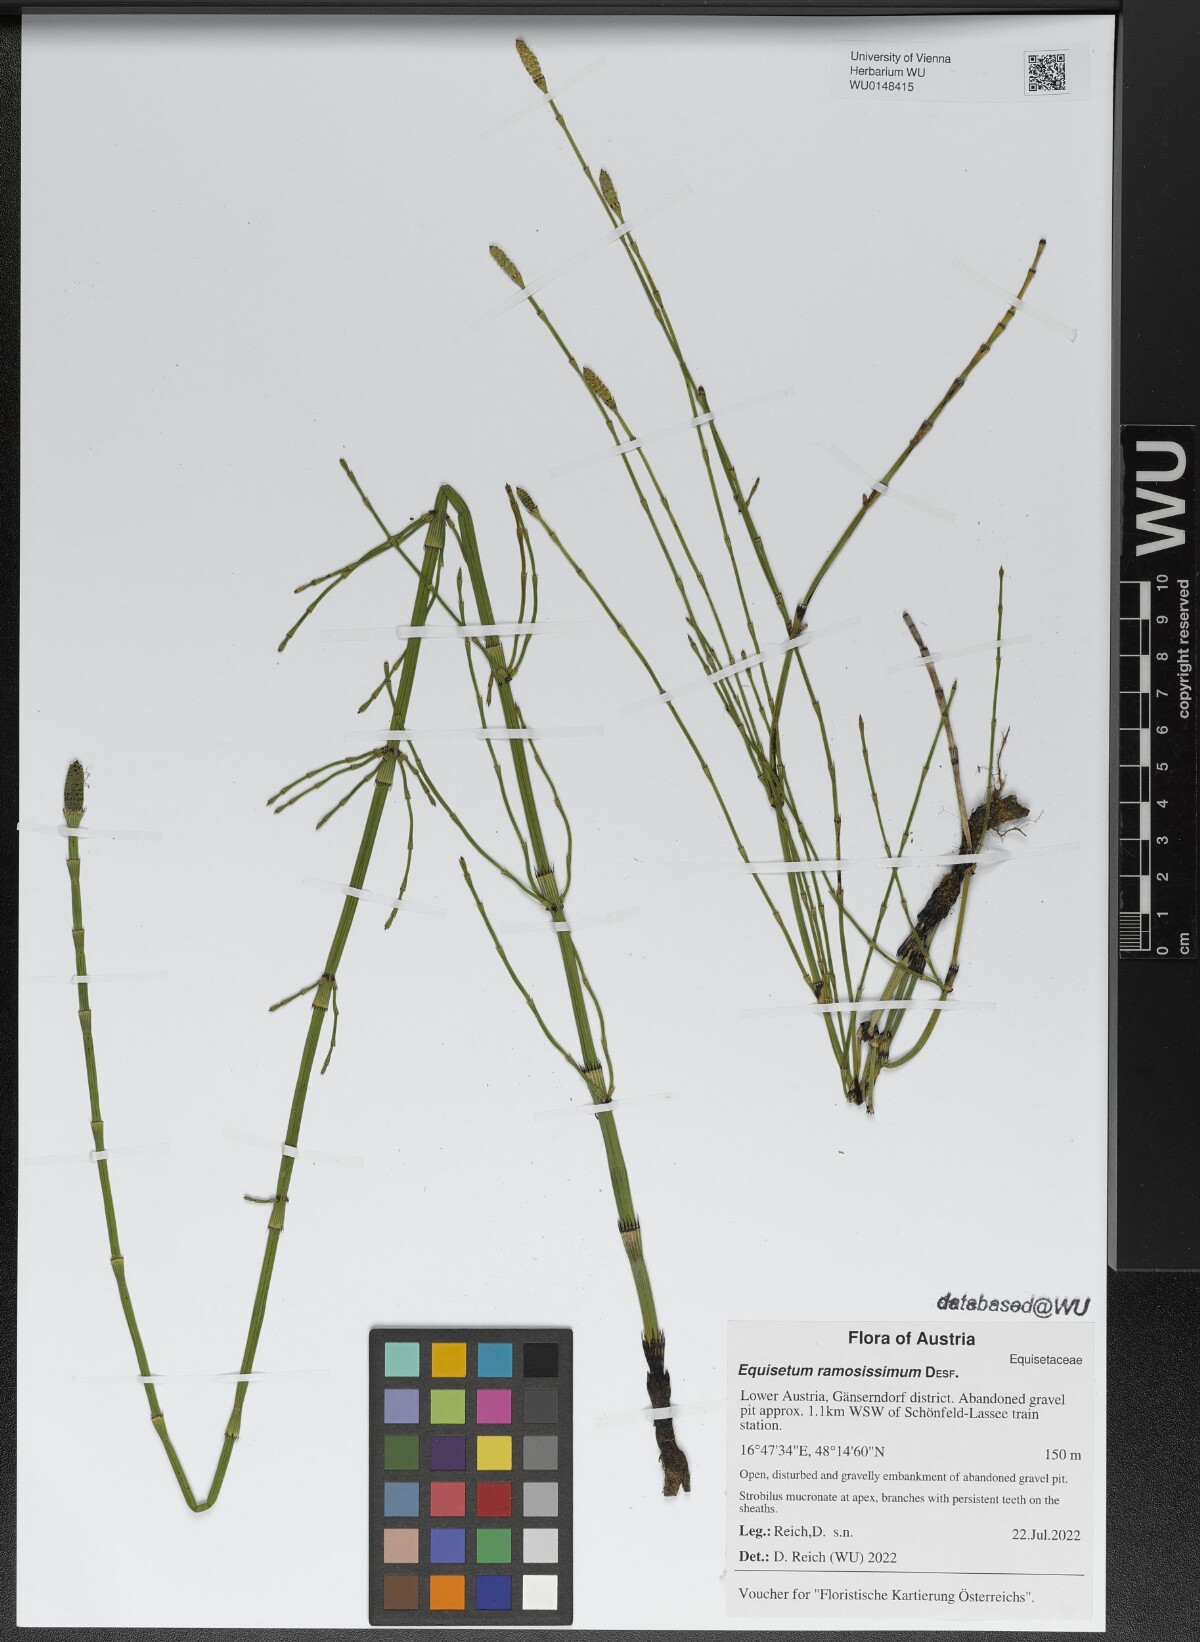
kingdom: Plantae
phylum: Tracheophyta
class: Polypodiopsida
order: Equisetales
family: Equisetaceae
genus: Equisetum
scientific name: Equisetum ramosissimum
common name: Branched horsetail
